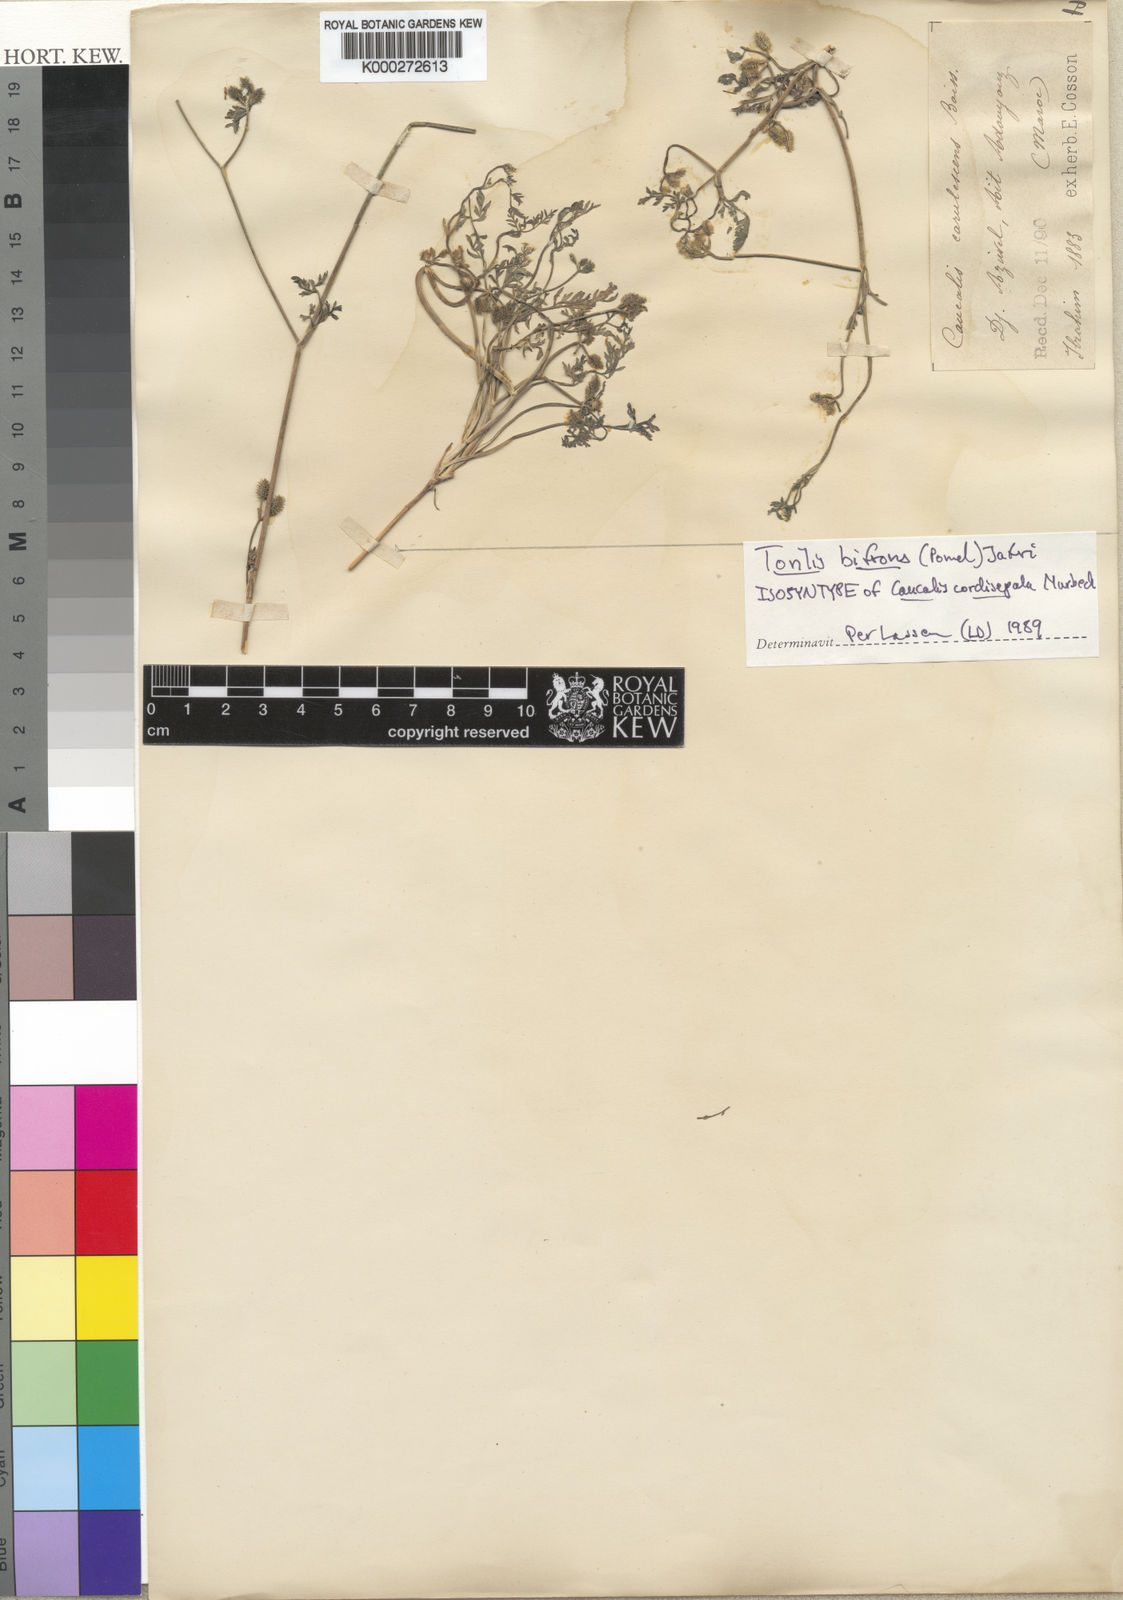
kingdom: Plantae
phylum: Tracheophyta
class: Magnoliopsida
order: Apiales
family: Apiaceae
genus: Torilis
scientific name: Torilis elongata
